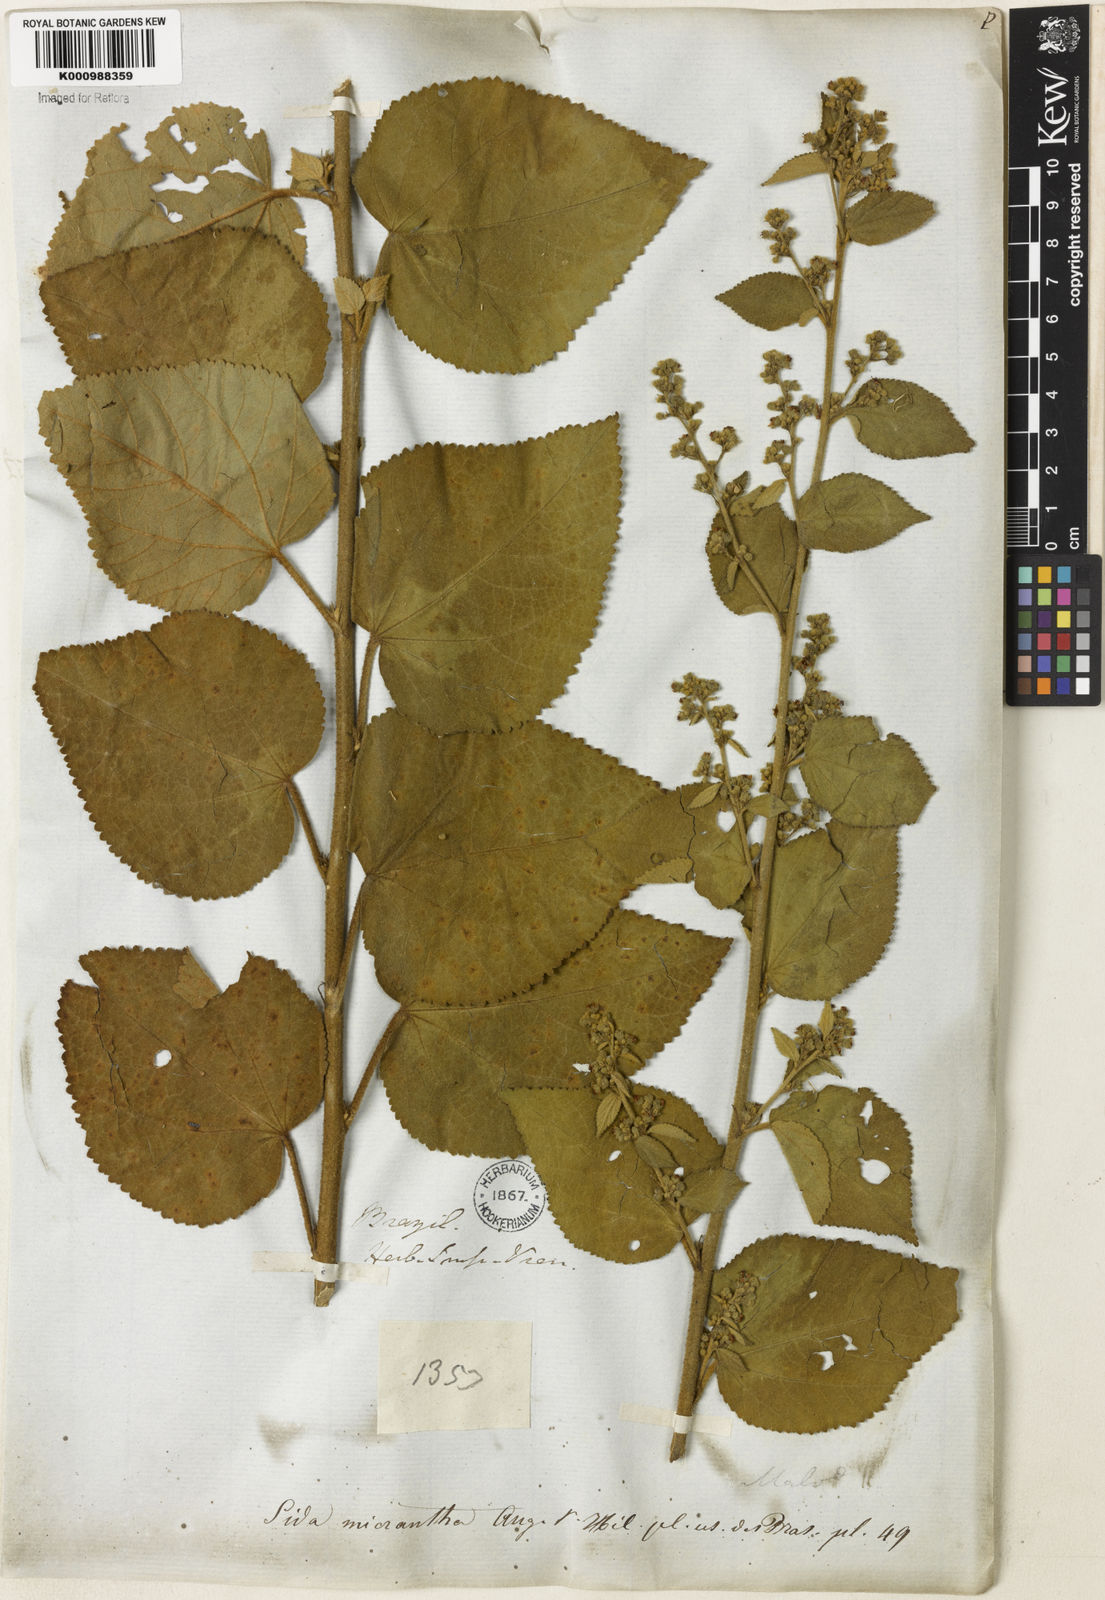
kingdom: Plantae
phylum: Tracheophyta
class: Magnoliopsida
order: Malvales
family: Malvaceae
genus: Sidastrum
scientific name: Sidastrum micranthum
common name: Dainty sandmallow
